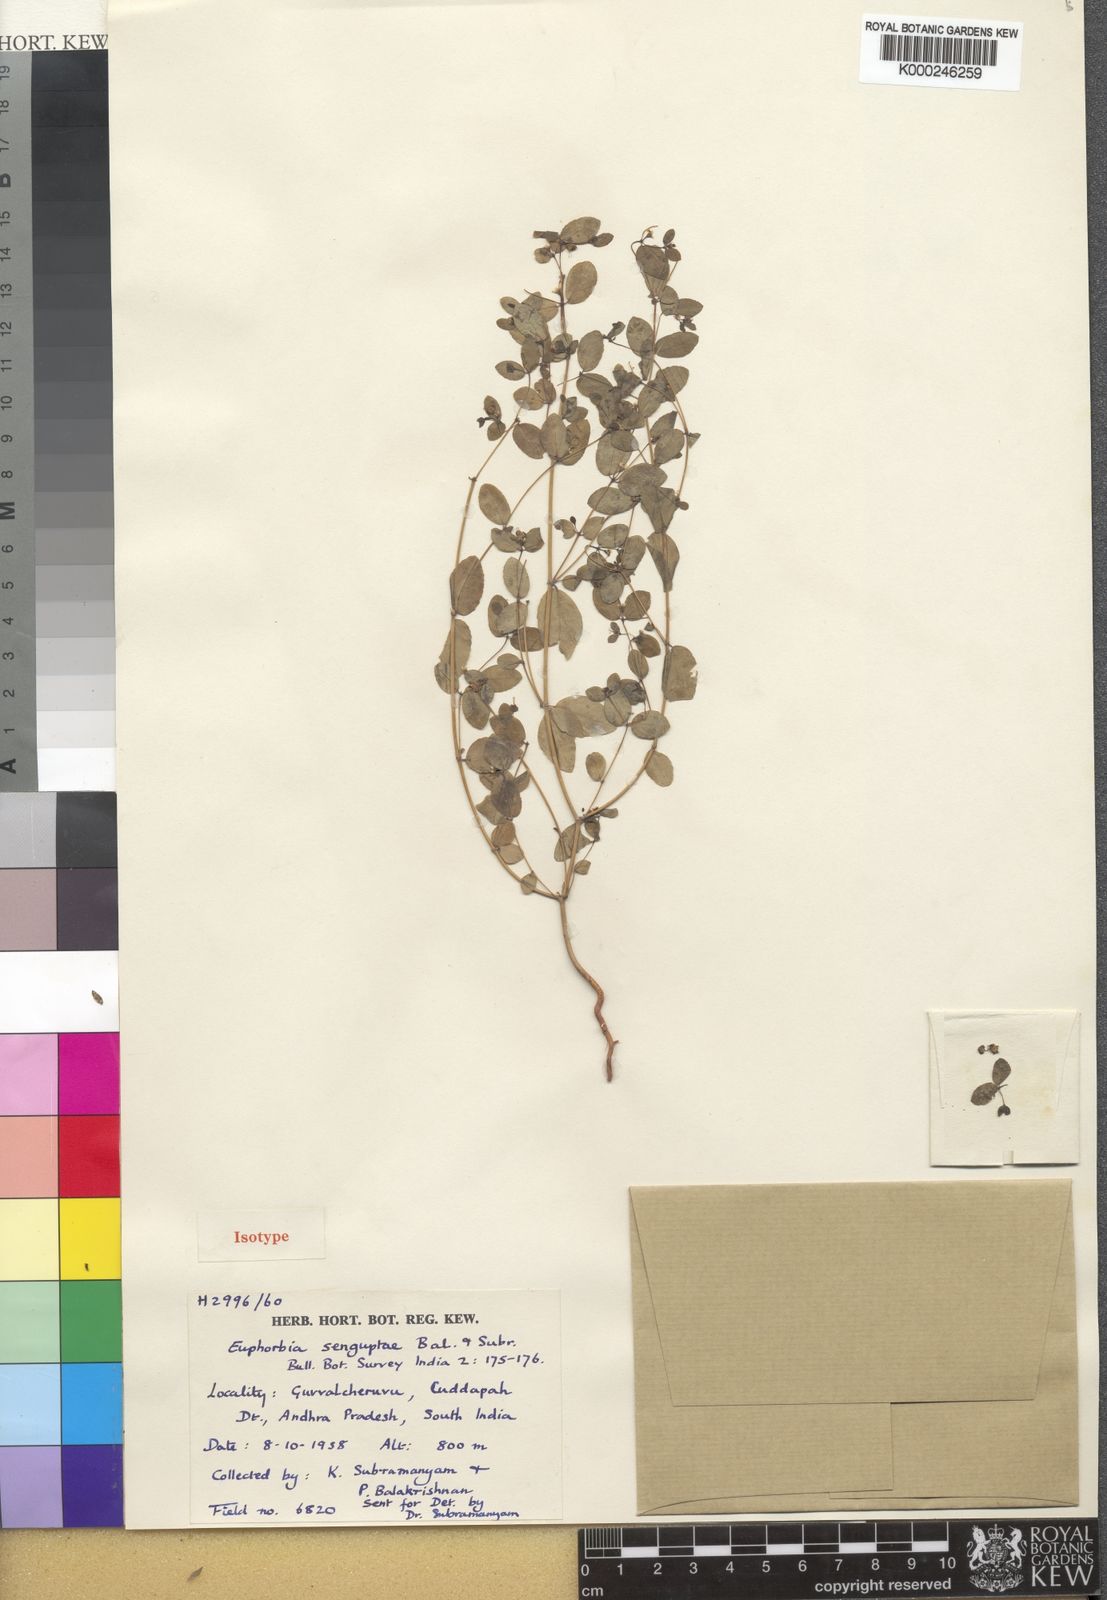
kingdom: Plantae
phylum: Tracheophyta
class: Magnoliopsida
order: Malpighiales
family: Euphorbiaceae
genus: Euphorbia
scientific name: Euphorbia senguptae
